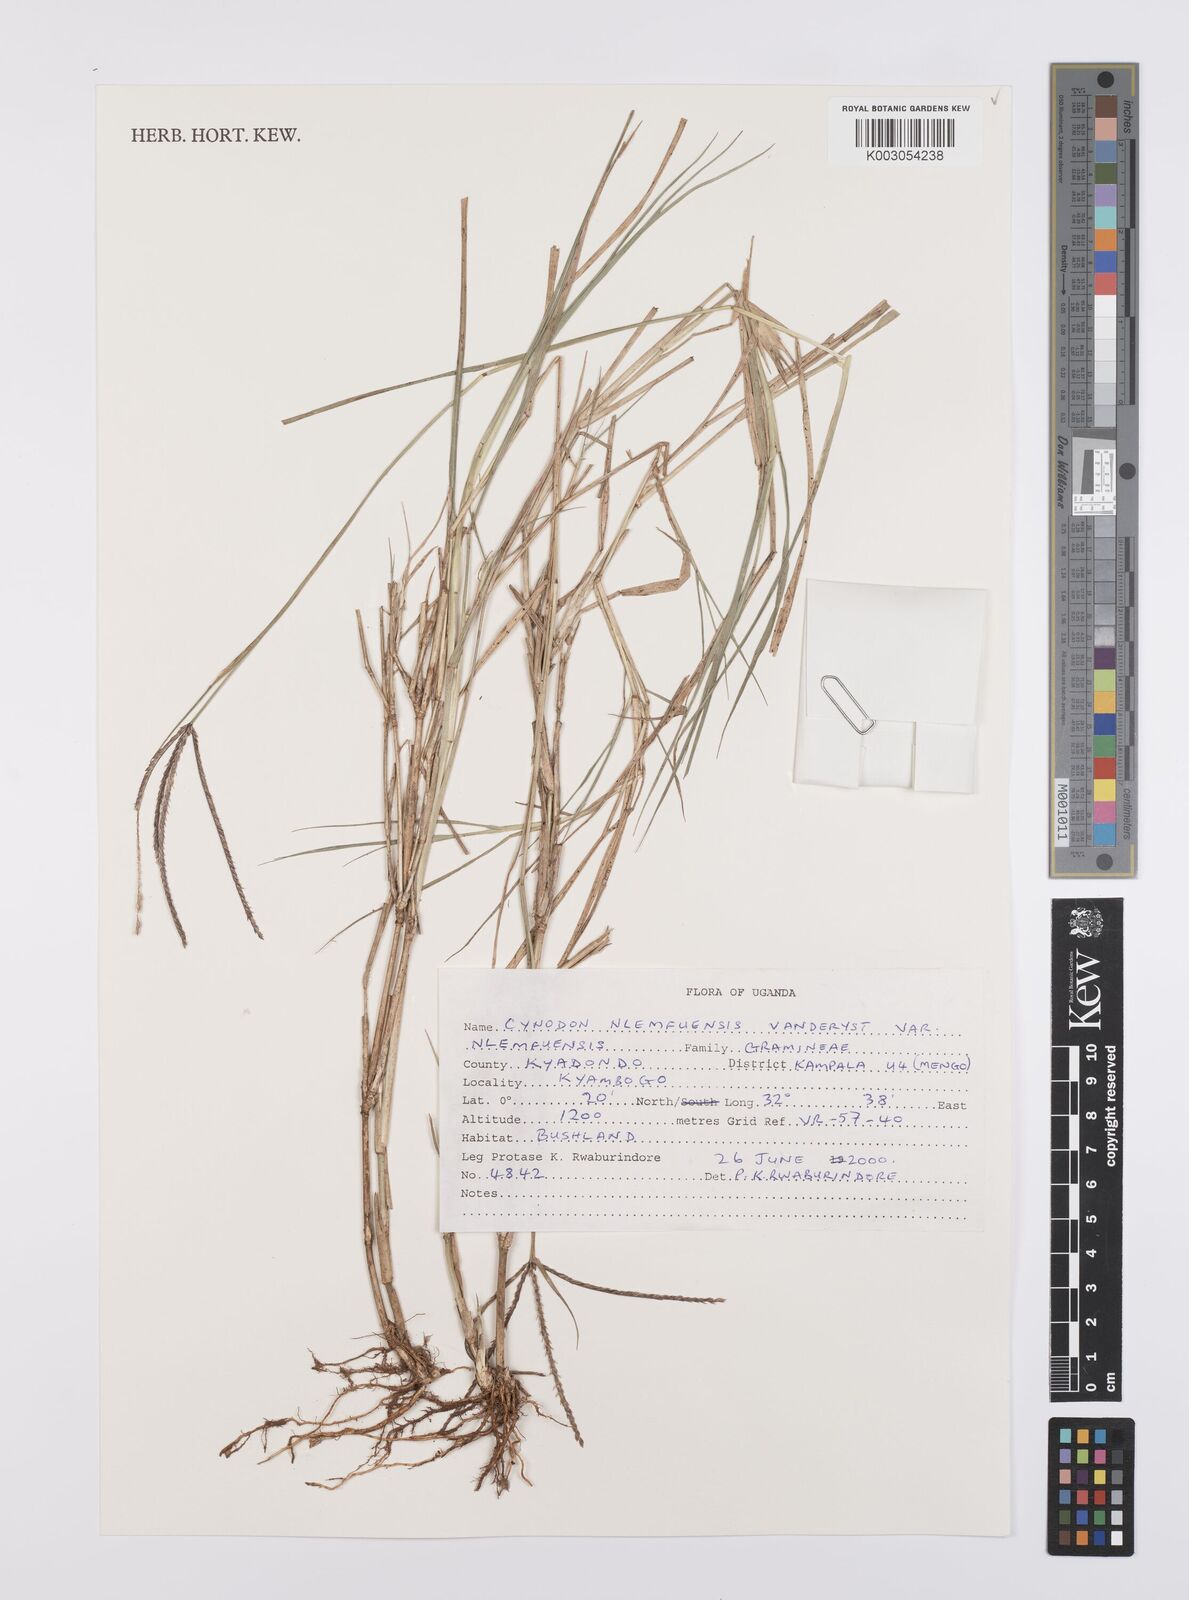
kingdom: Plantae
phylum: Tracheophyta
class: Liliopsida
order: Poales
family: Poaceae
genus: Cynodon
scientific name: Cynodon nlemfuensis
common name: African bermudagrass
